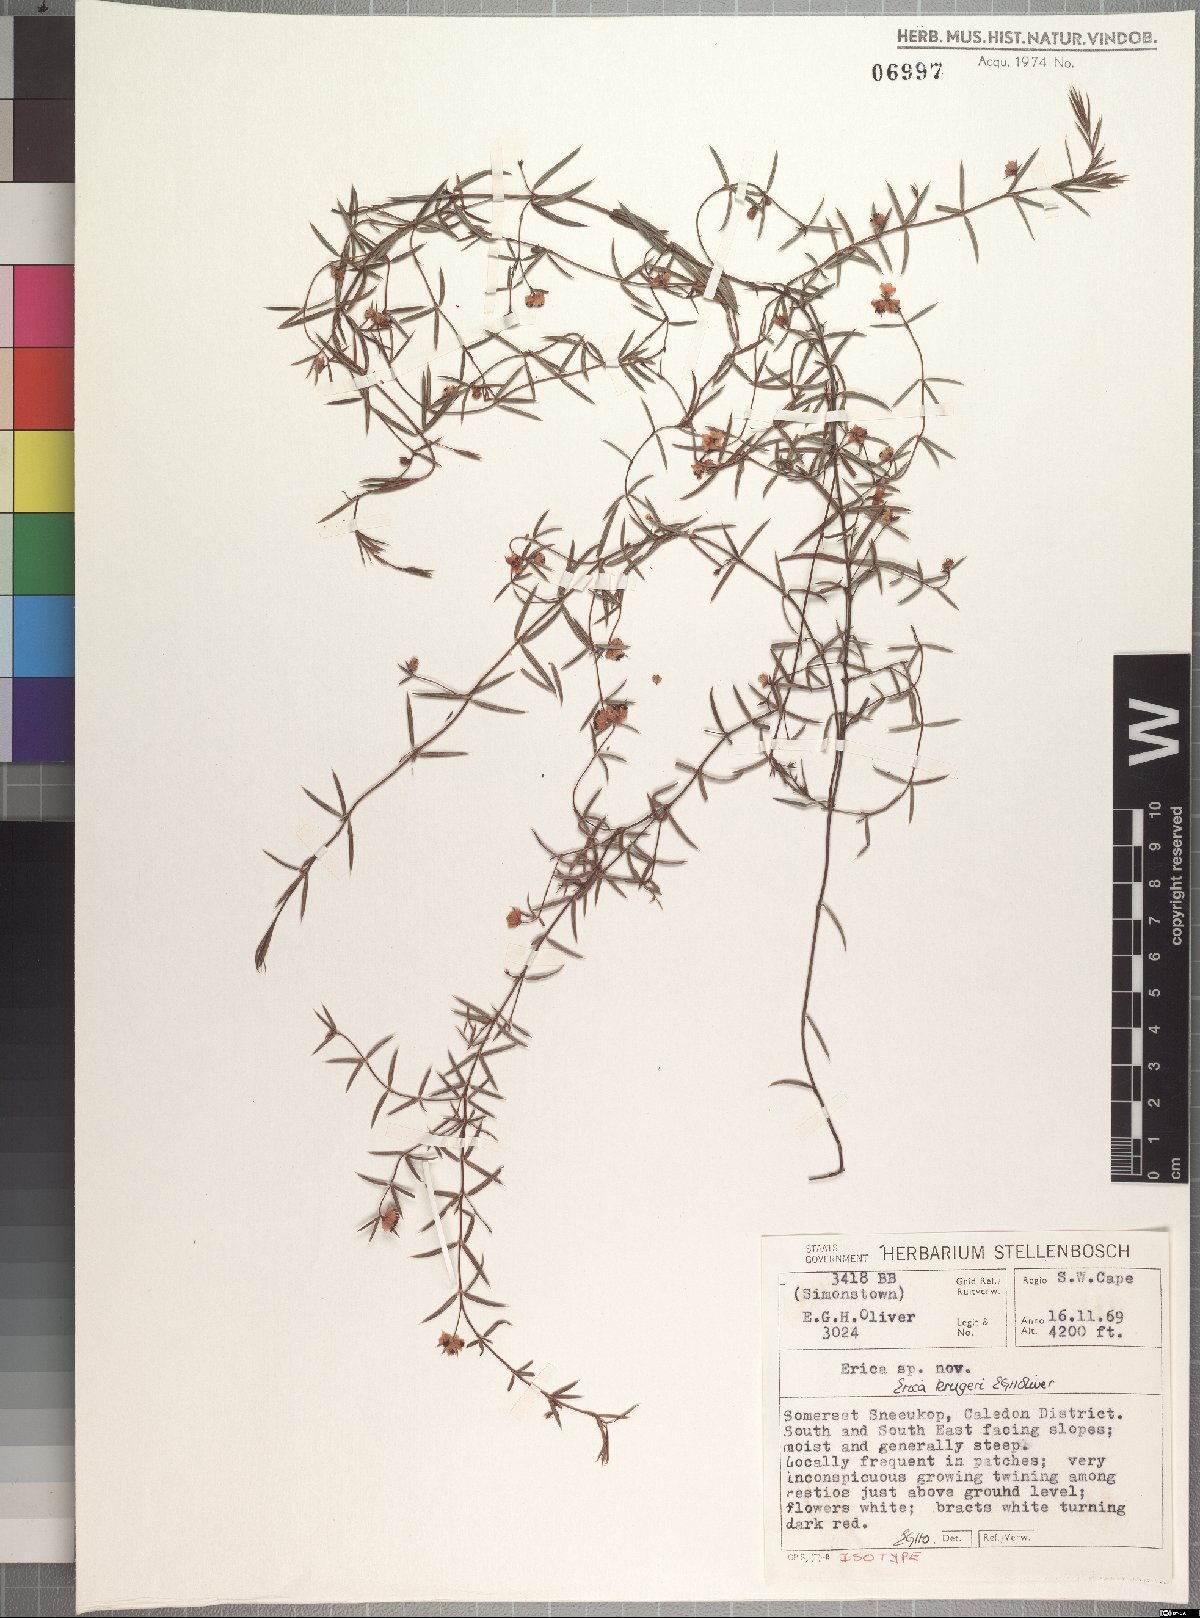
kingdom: Plantae
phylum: Tracheophyta
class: Magnoliopsida
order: Ericales
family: Ericaceae
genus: Erica
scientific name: Erica krugeri
